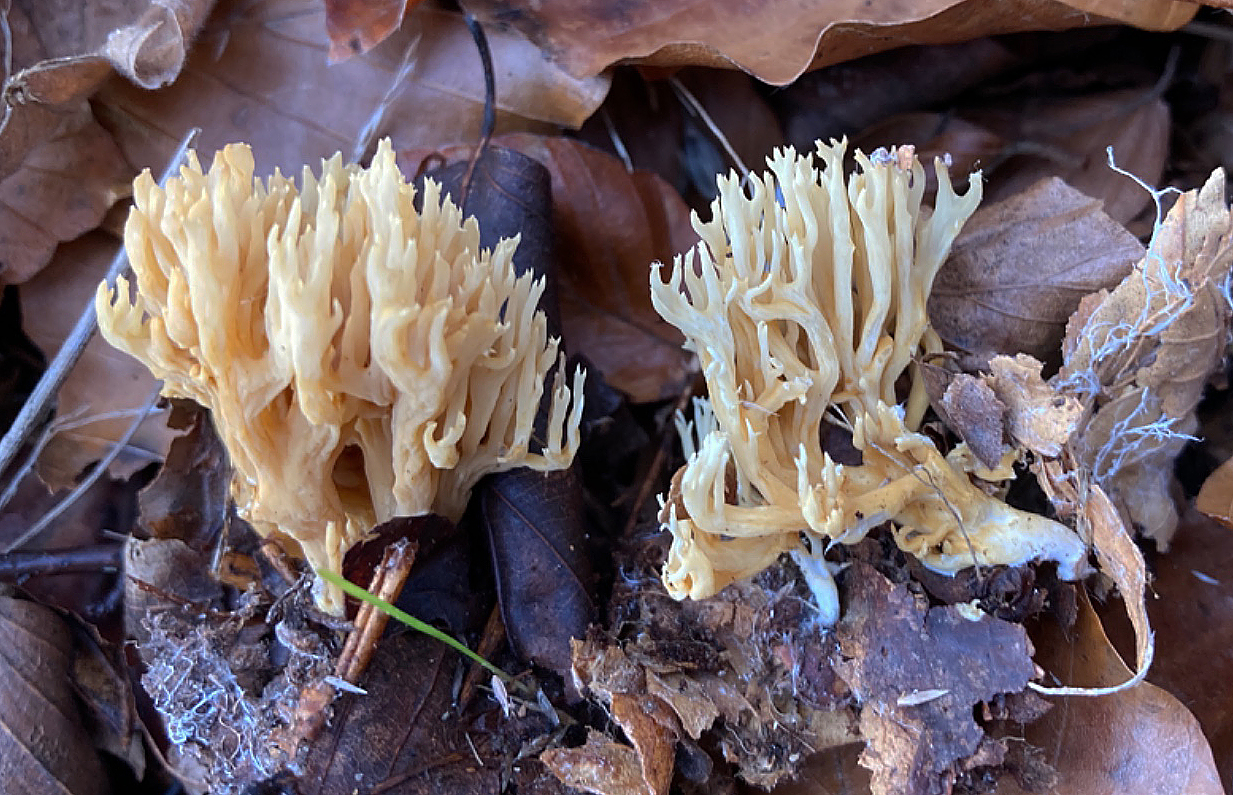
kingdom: Fungi
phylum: Basidiomycota
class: Agaricomycetes
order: Gomphales
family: Gomphaceae
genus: Phaeoclavulina
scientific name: Phaeoclavulina flaccida
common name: spinkel koralsvamp
